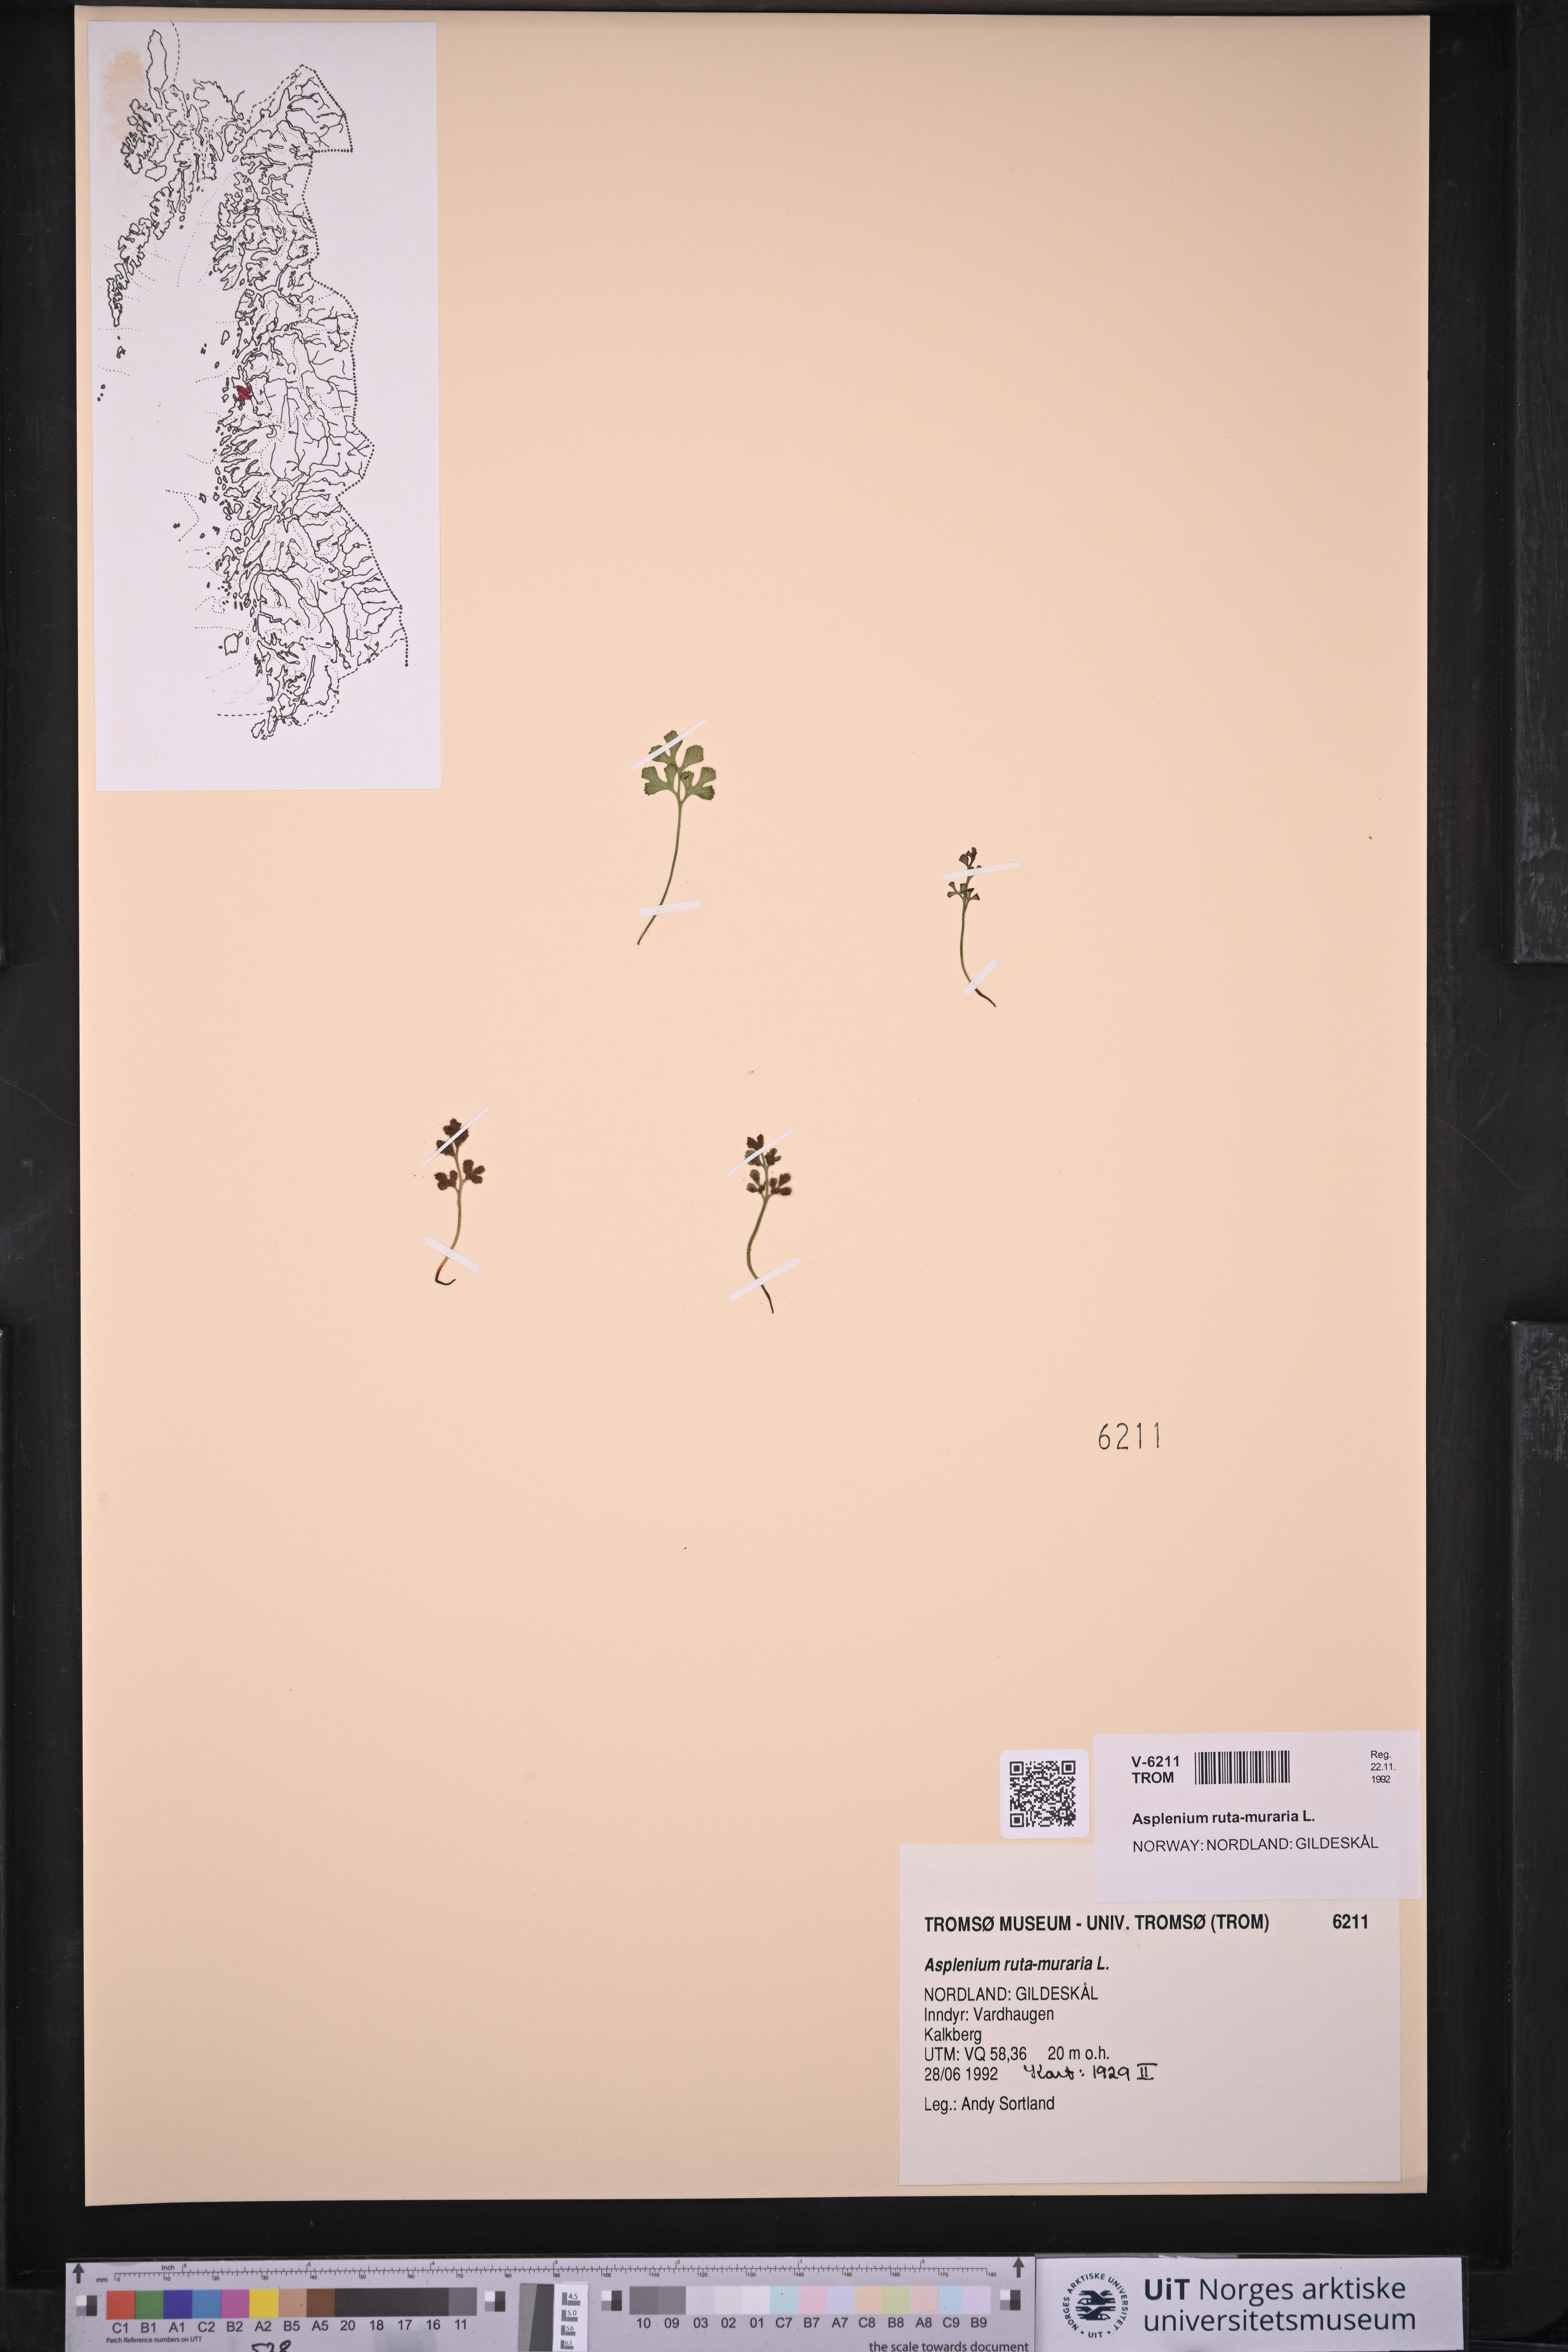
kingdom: Plantae
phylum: Tracheophyta
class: Polypodiopsida
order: Polypodiales
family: Aspleniaceae
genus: Asplenium
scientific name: Asplenium ruta-muraria
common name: Wall-rue
